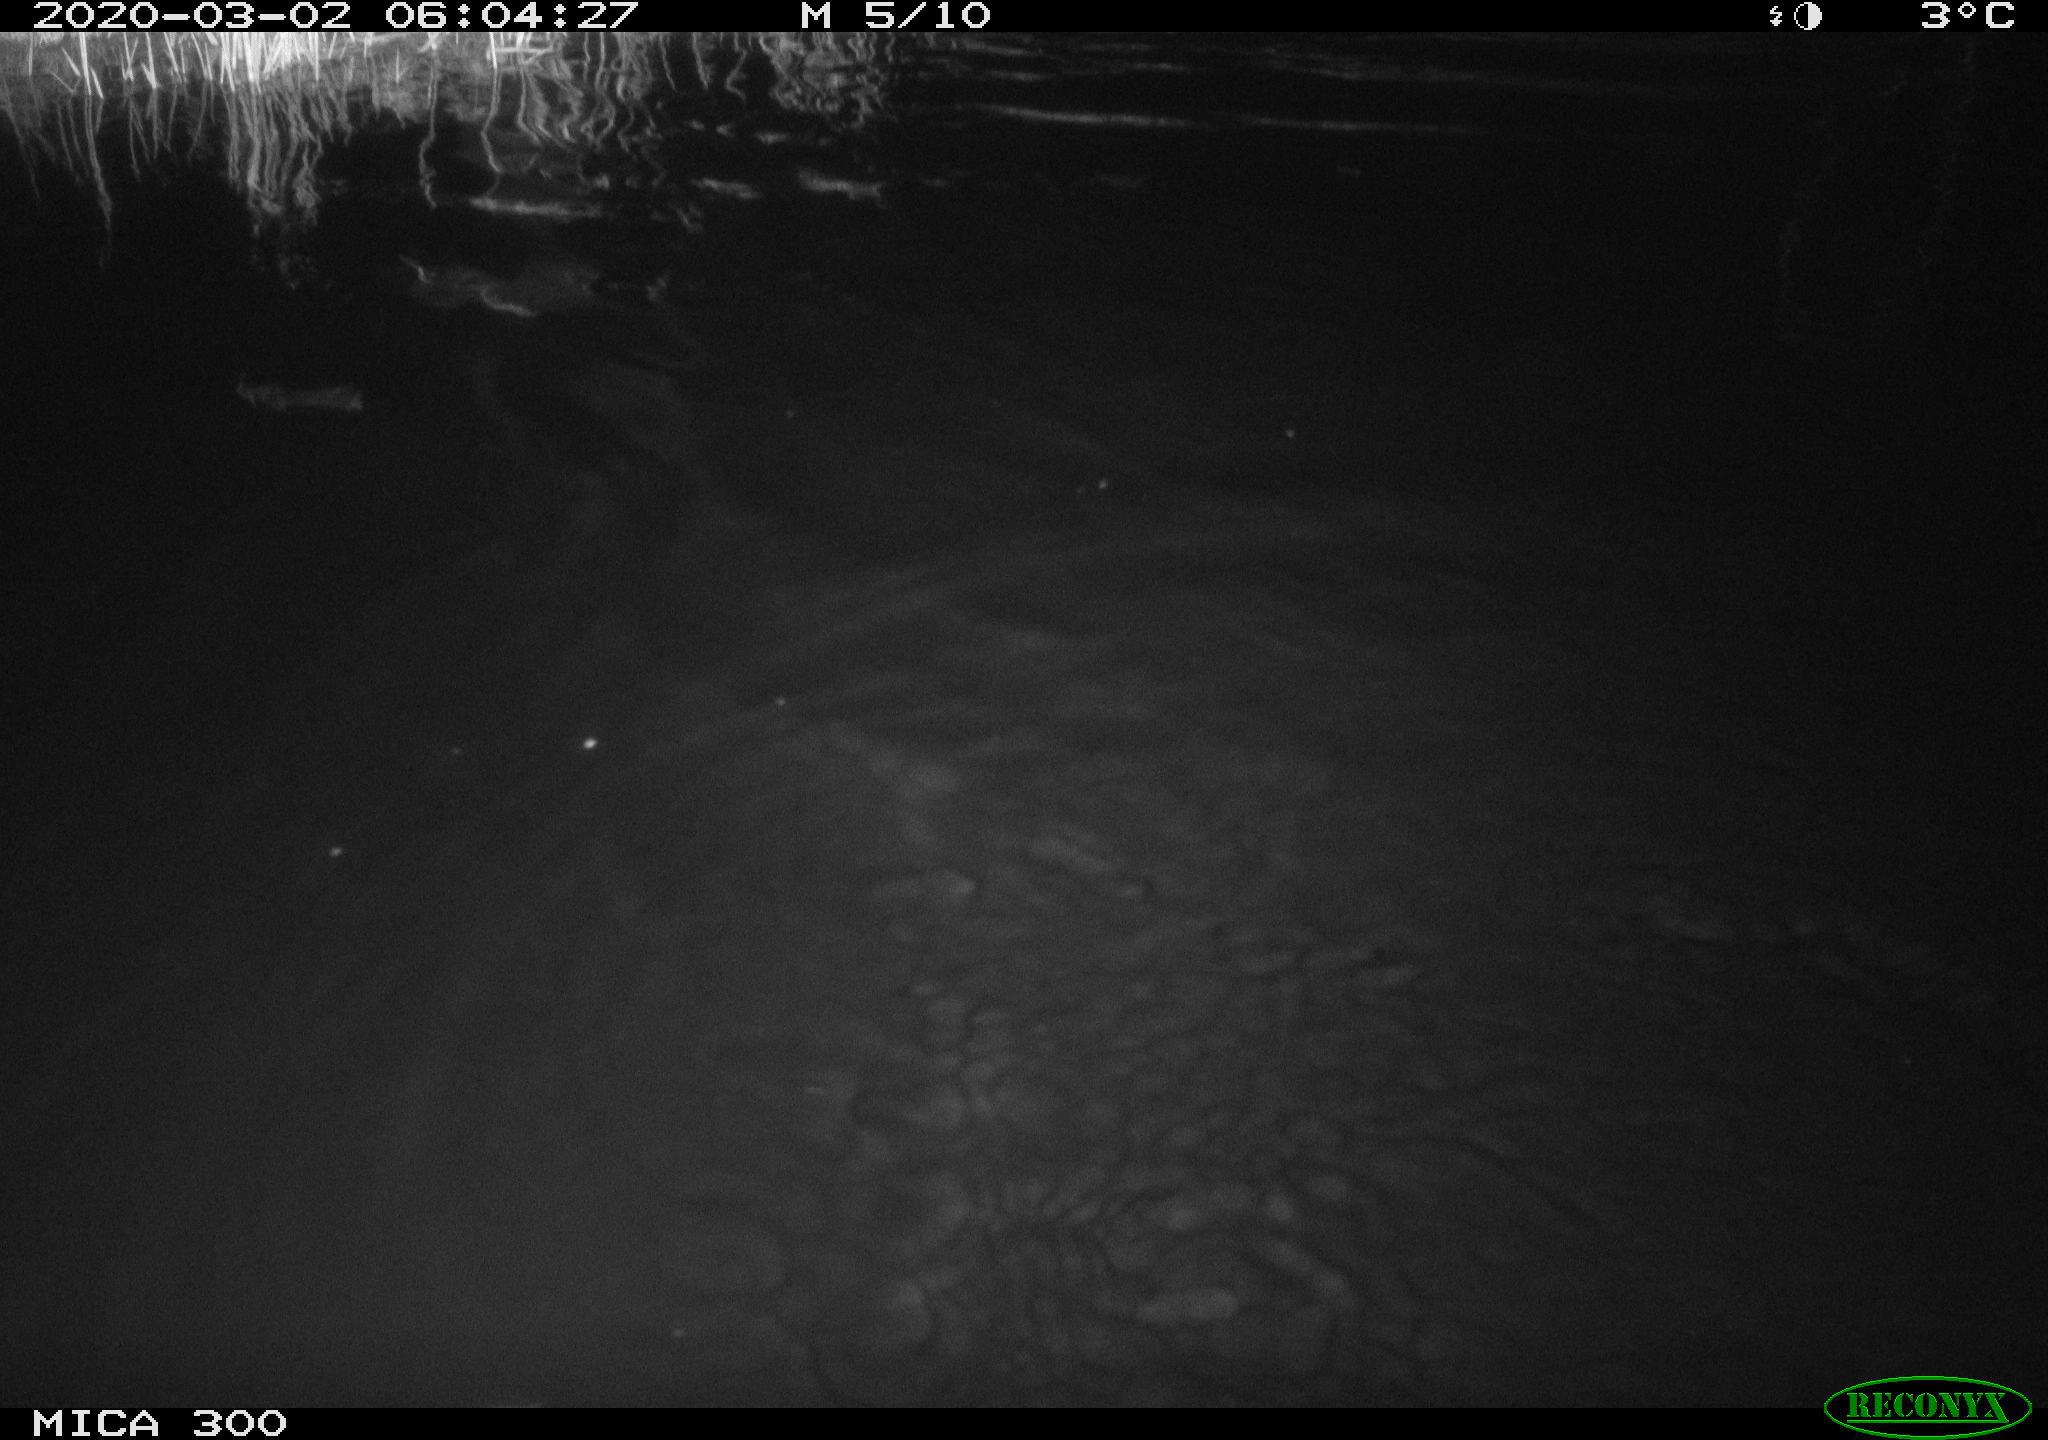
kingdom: Animalia
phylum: Chordata
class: Mammalia
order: Rodentia
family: Myocastoridae
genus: Myocastor
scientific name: Myocastor coypus
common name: Coypu
